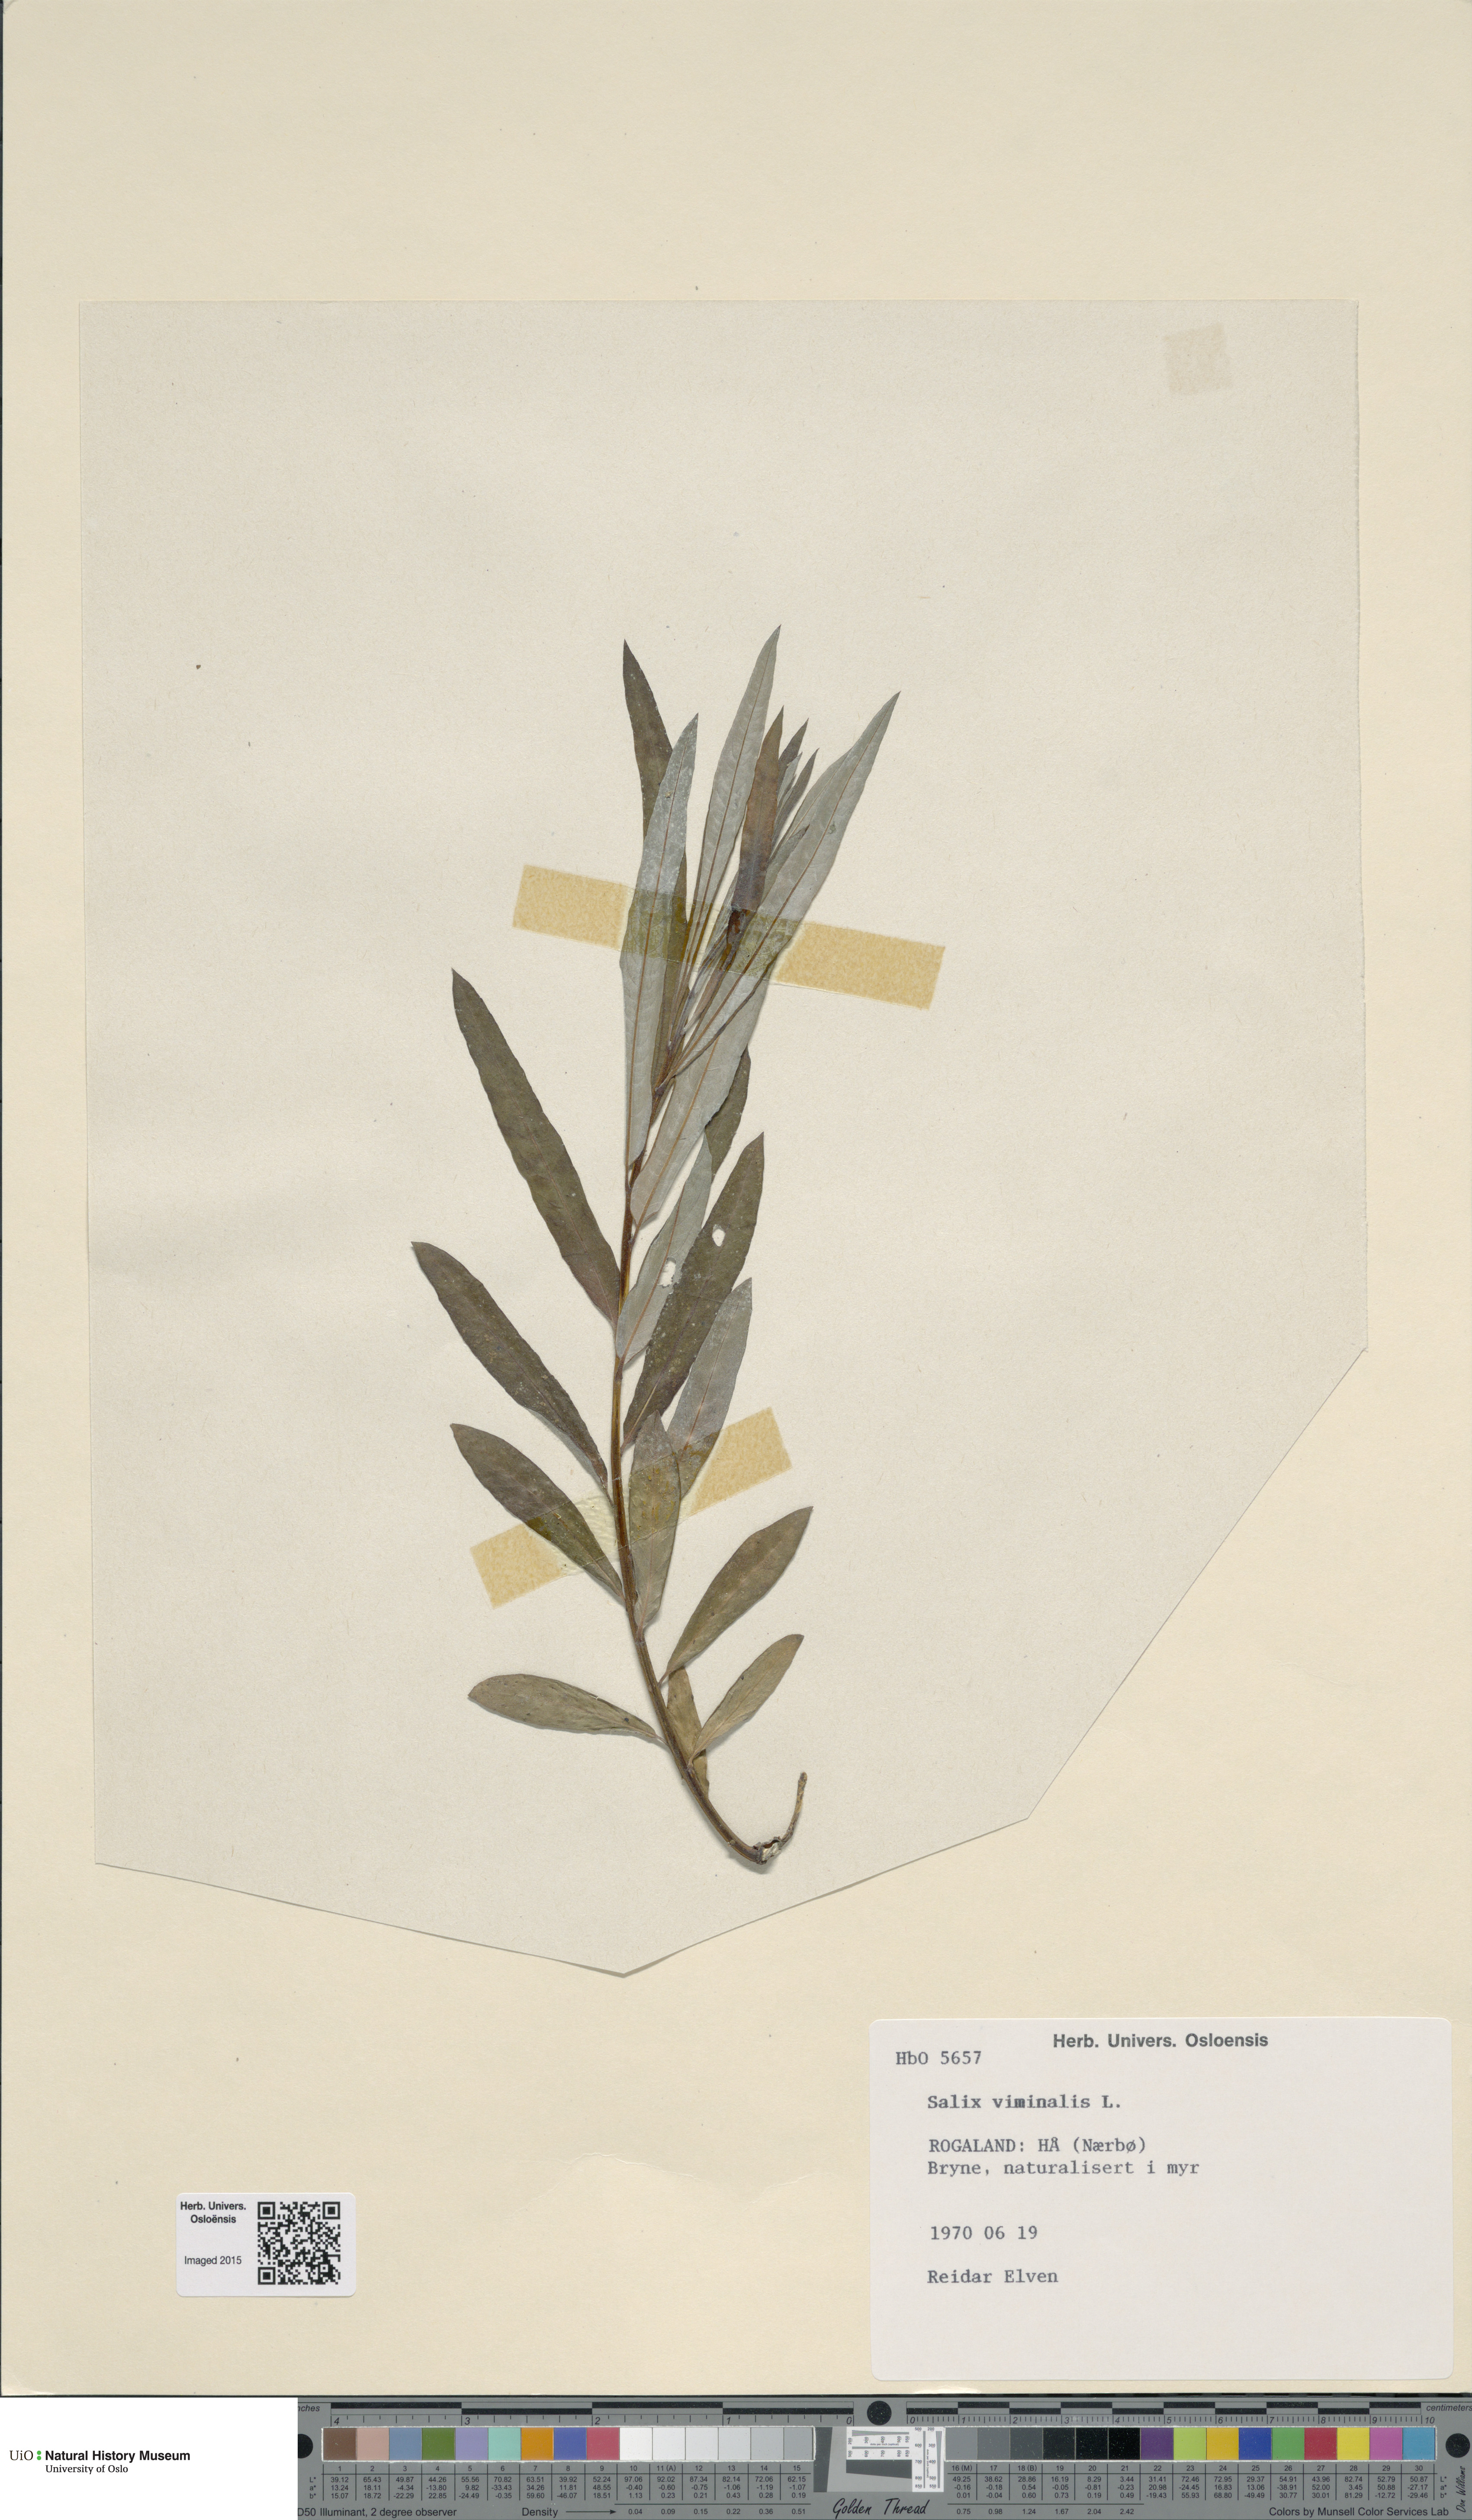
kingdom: Plantae
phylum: Tracheophyta
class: Magnoliopsida
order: Malpighiales
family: Salicaceae
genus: Salix
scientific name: Salix viminalis
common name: Osier
